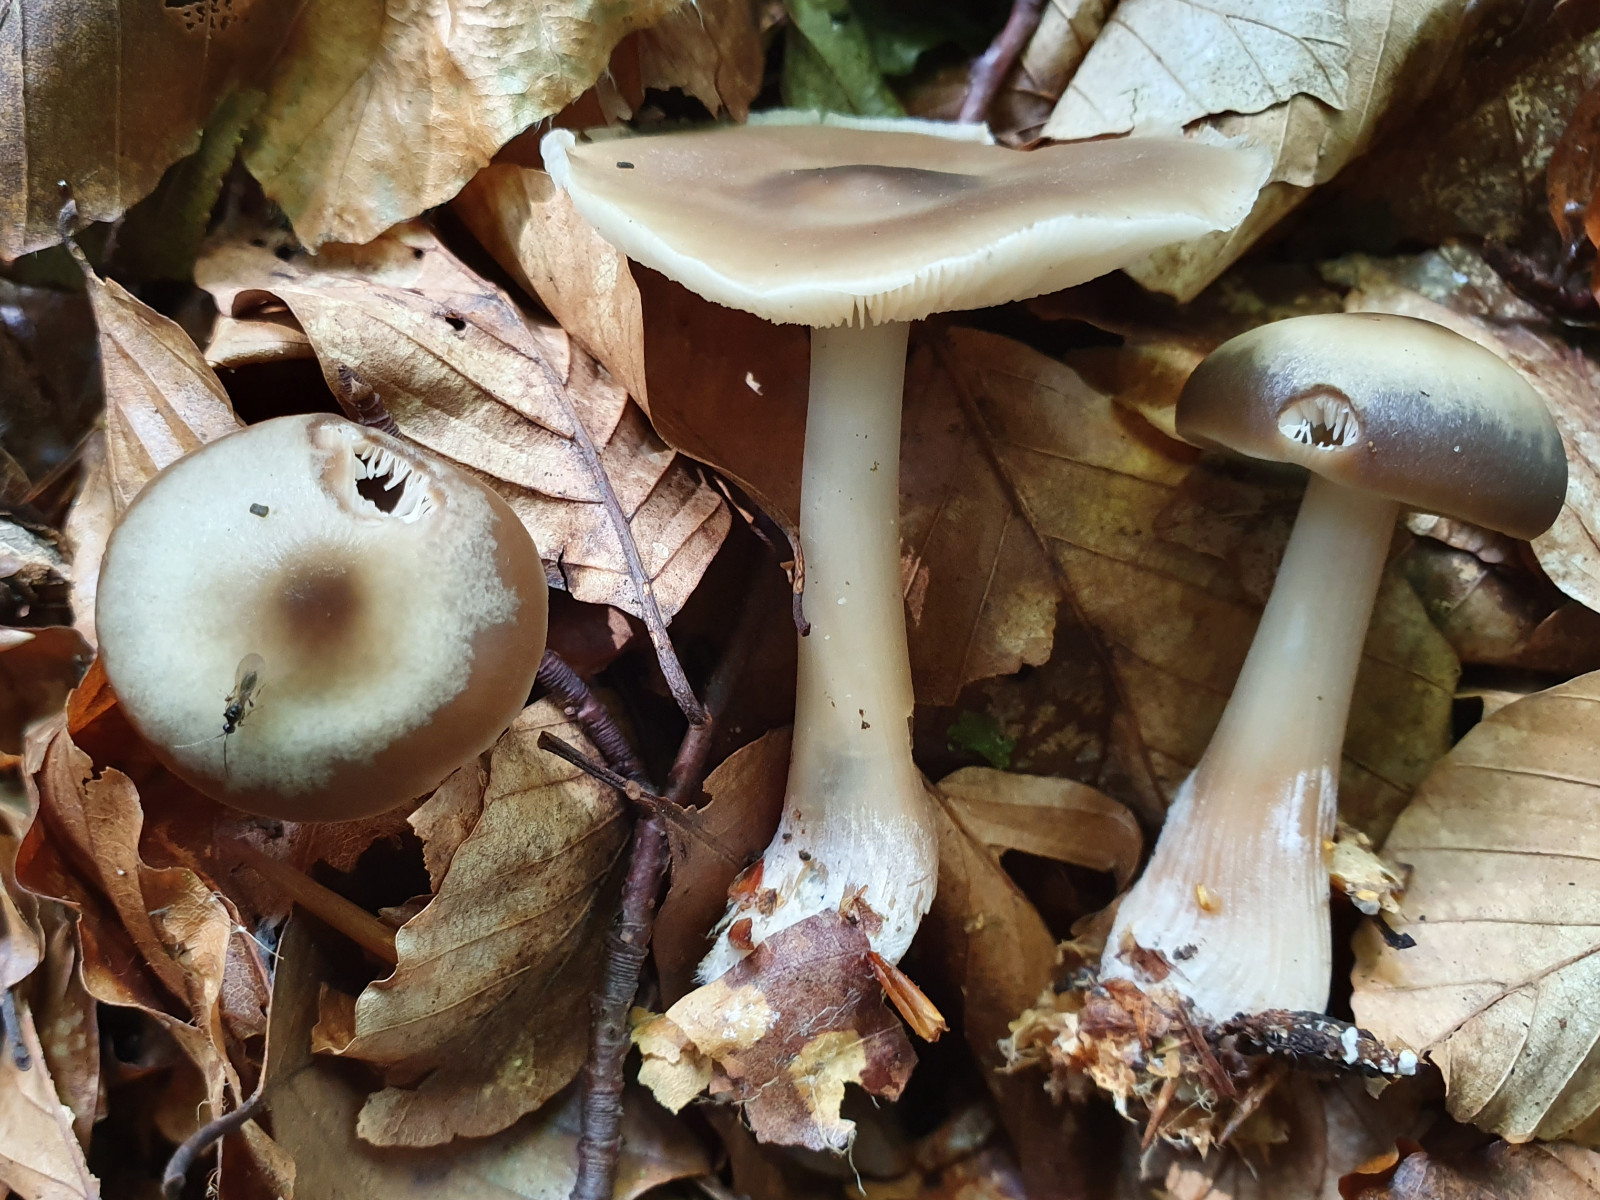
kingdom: Fungi
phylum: Basidiomycota
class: Agaricomycetes
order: Agaricales
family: Omphalotaceae
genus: Rhodocollybia
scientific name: Rhodocollybia asema
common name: horngrå fladhat
